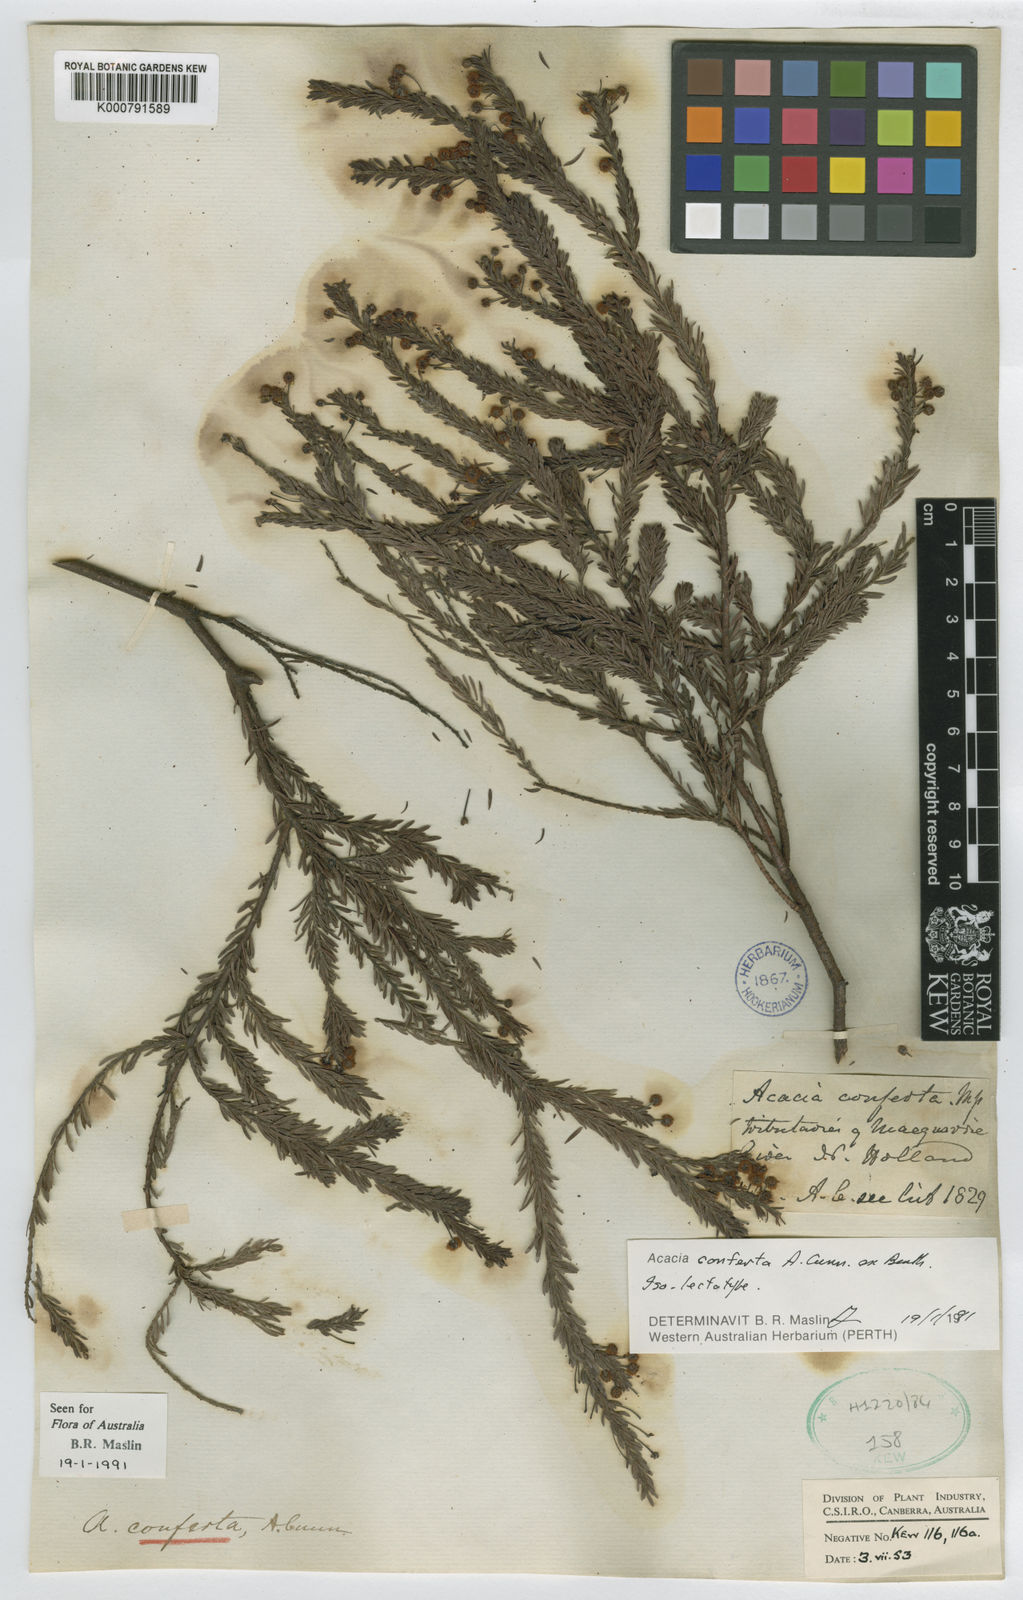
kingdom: Plantae
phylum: Tracheophyta
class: Magnoliopsida
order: Fabales
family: Fabaceae
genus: Acacia
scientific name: Acacia conferta
